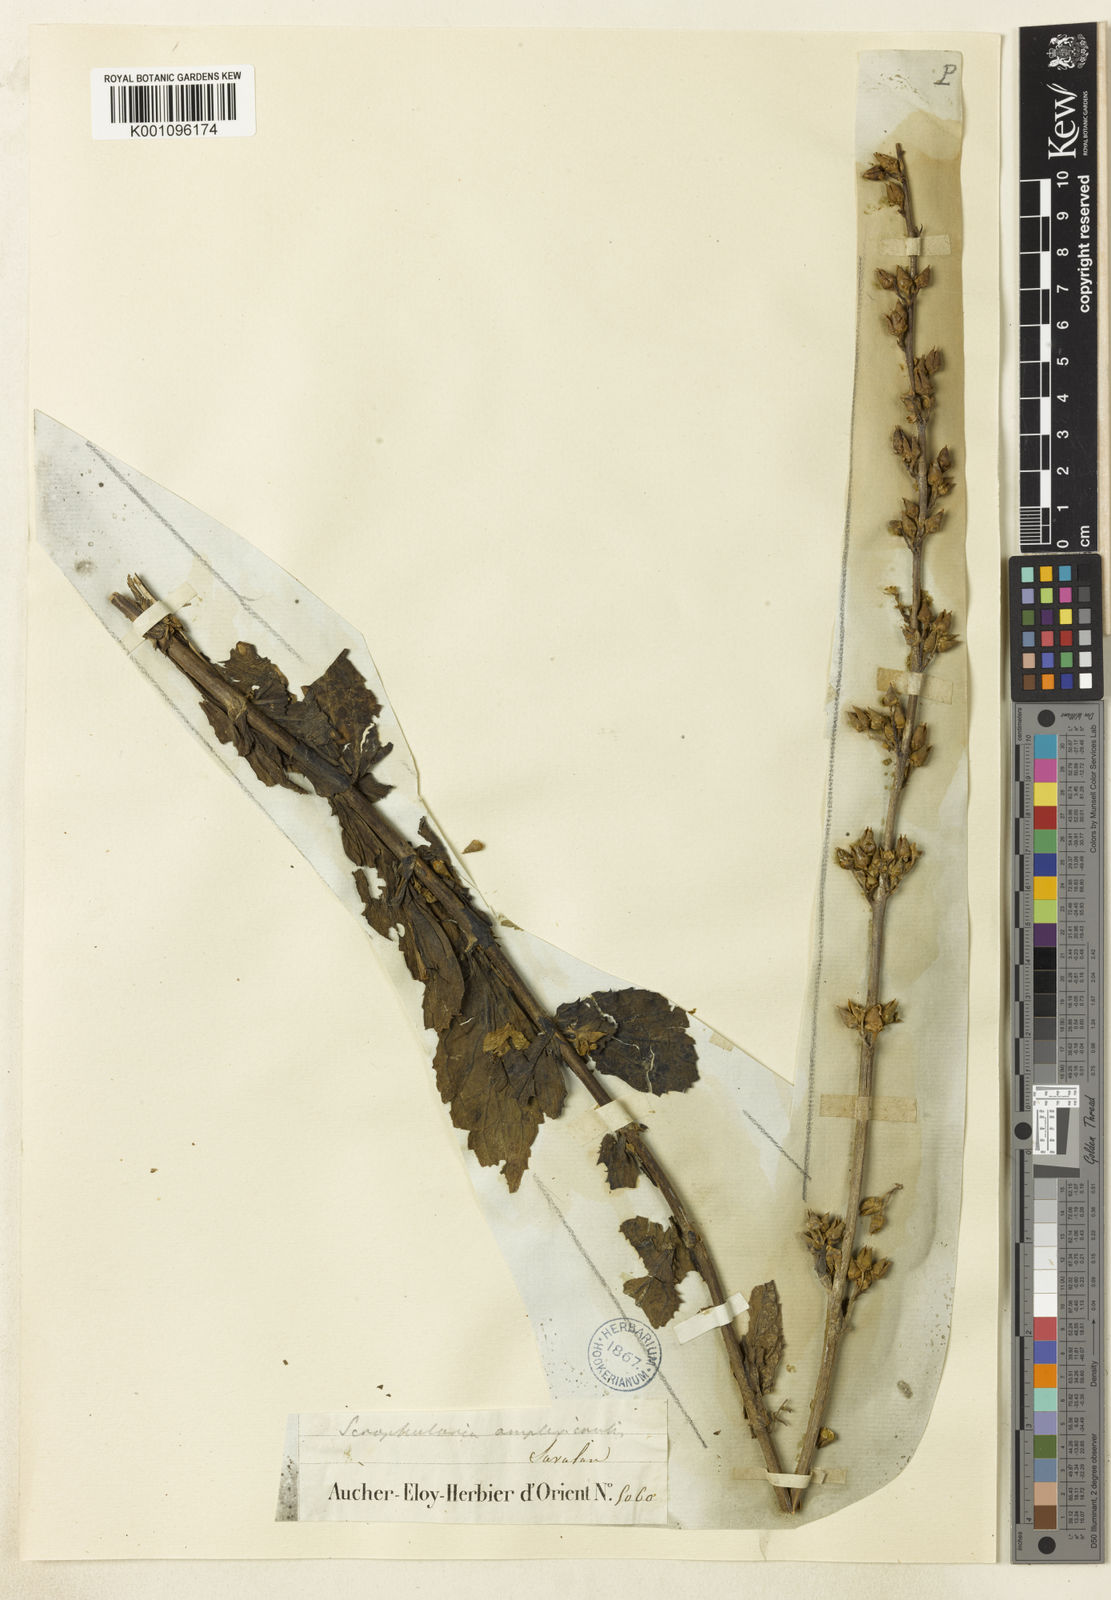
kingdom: Plantae
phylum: Tracheophyta
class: Magnoliopsida
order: Lamiales
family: Scrophulariaceae
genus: Scrophularia
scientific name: Scrophularia amplexicaulis
